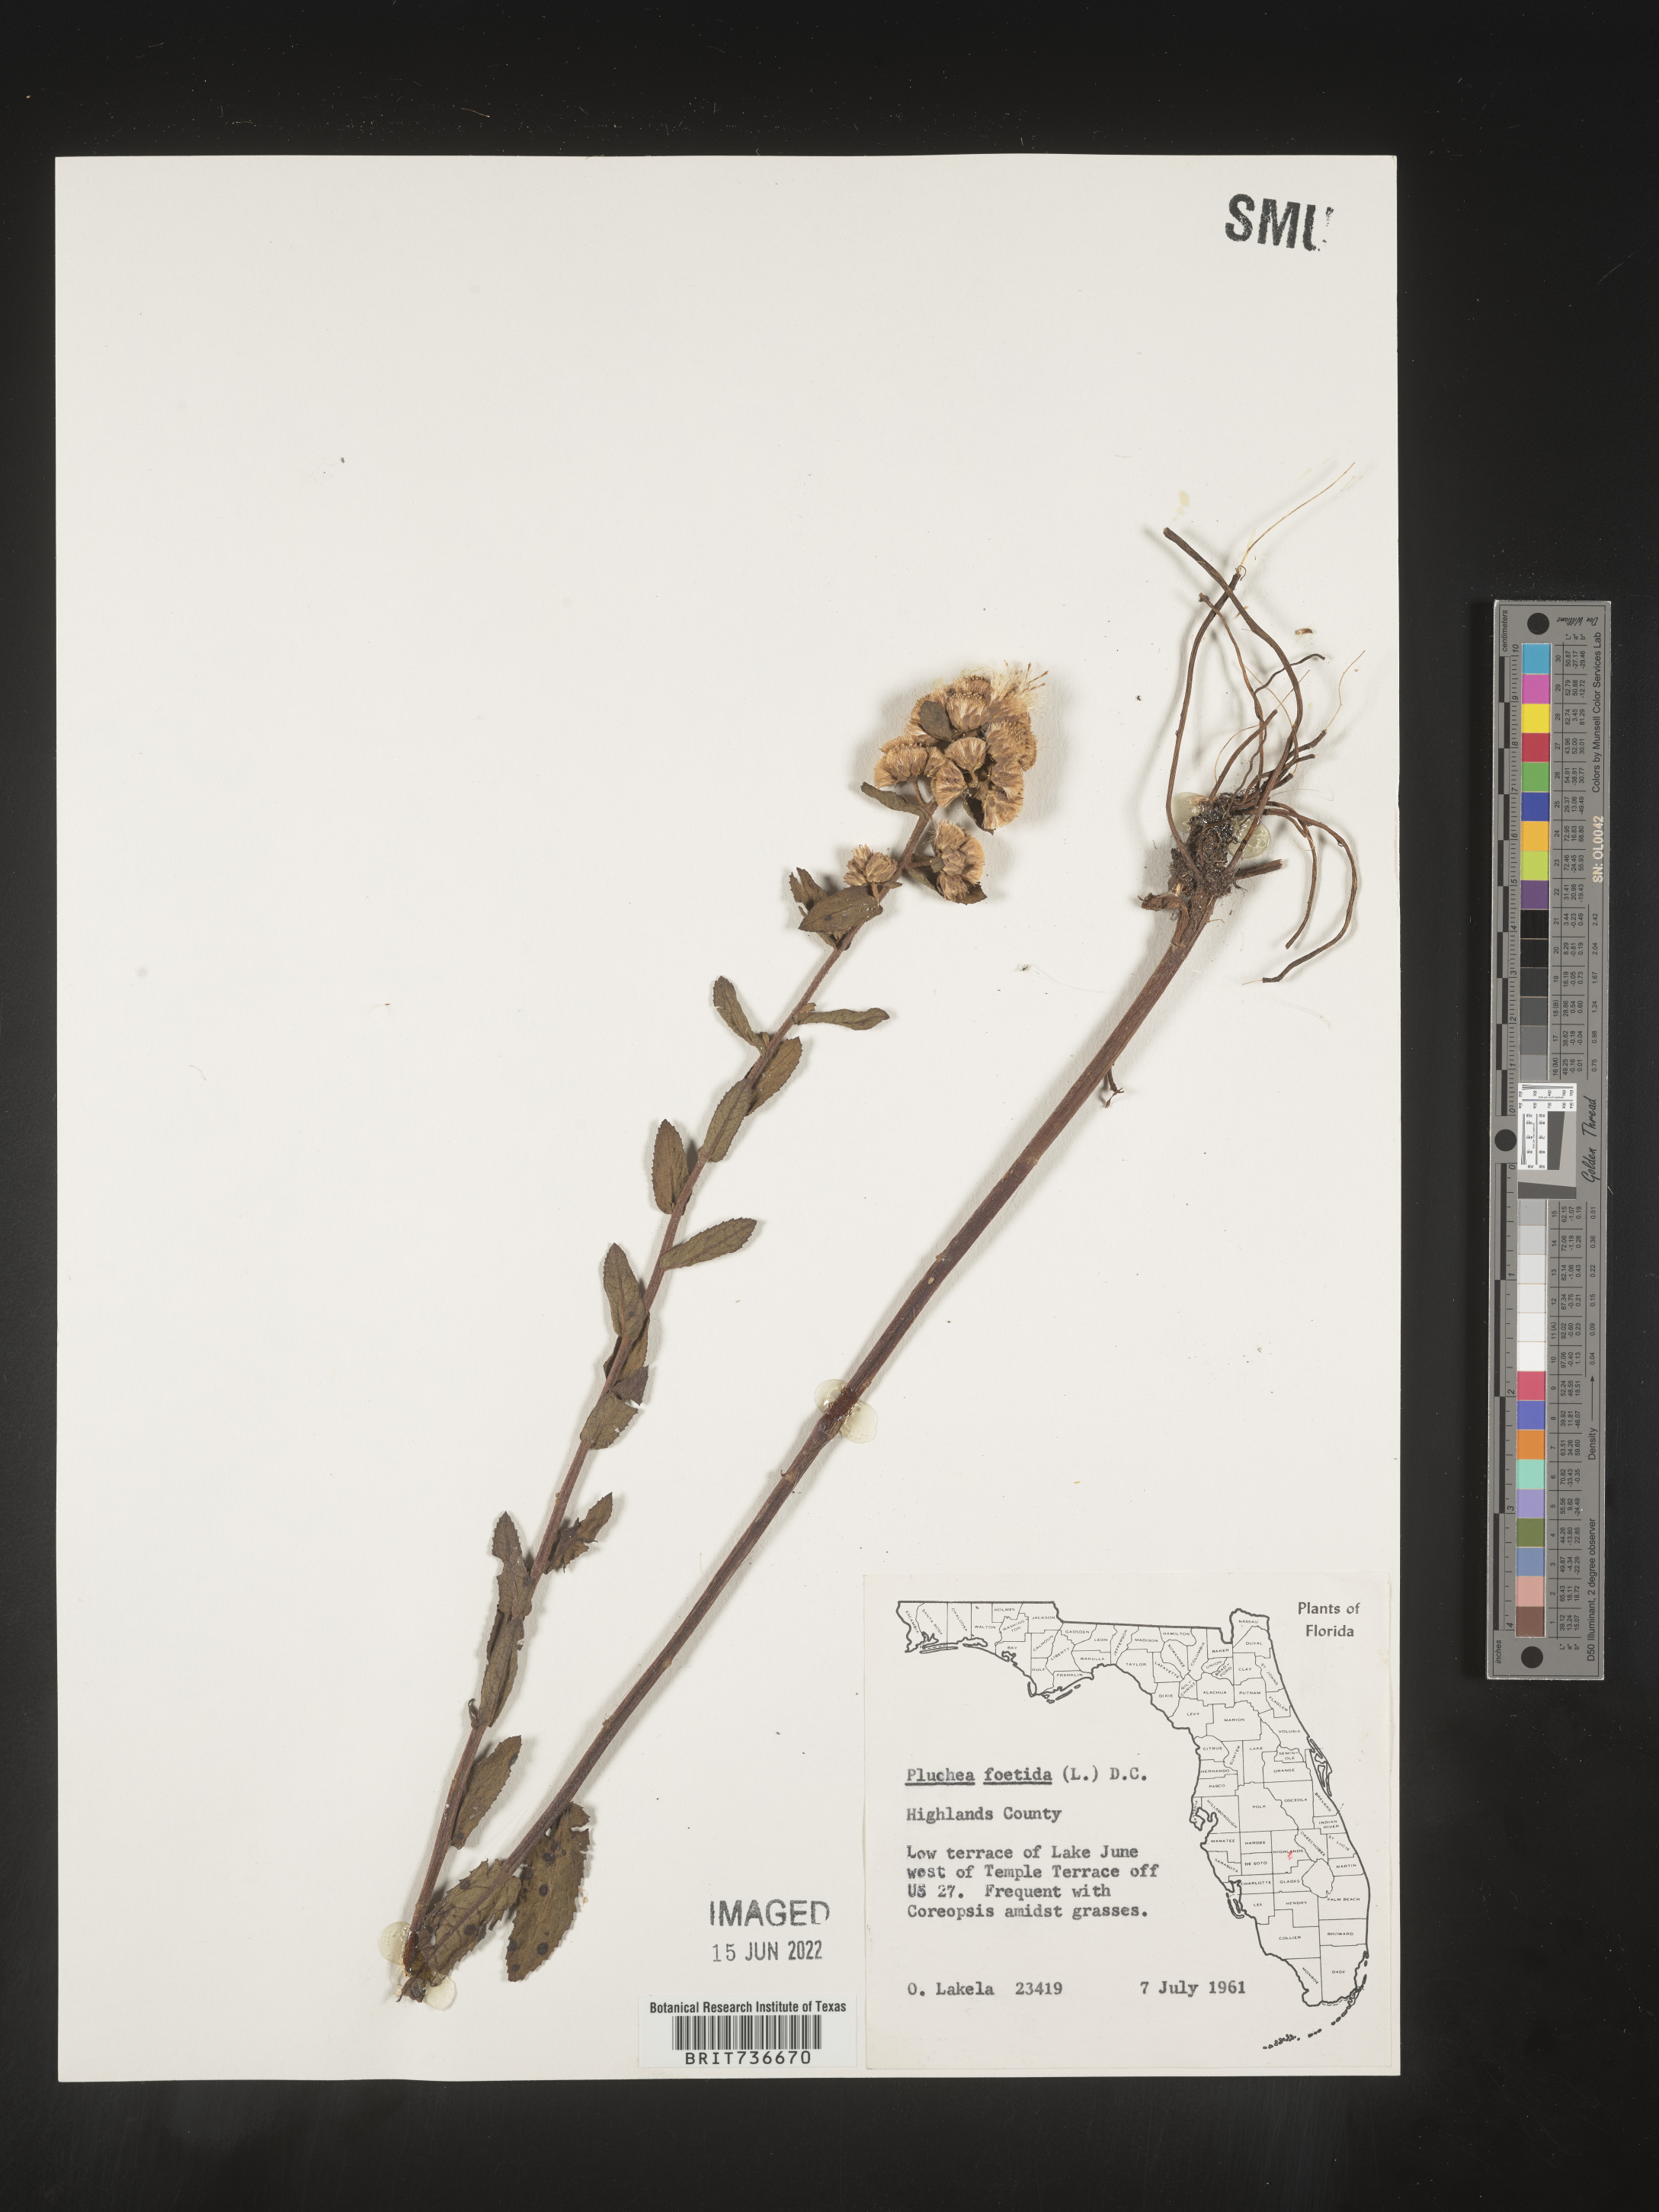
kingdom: Plantae
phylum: Tracheophyta
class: Magnoliopsida
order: Asterales
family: Asteraceae
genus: Pluchea
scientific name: Pluchea foetida
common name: Stinking camphorweed
